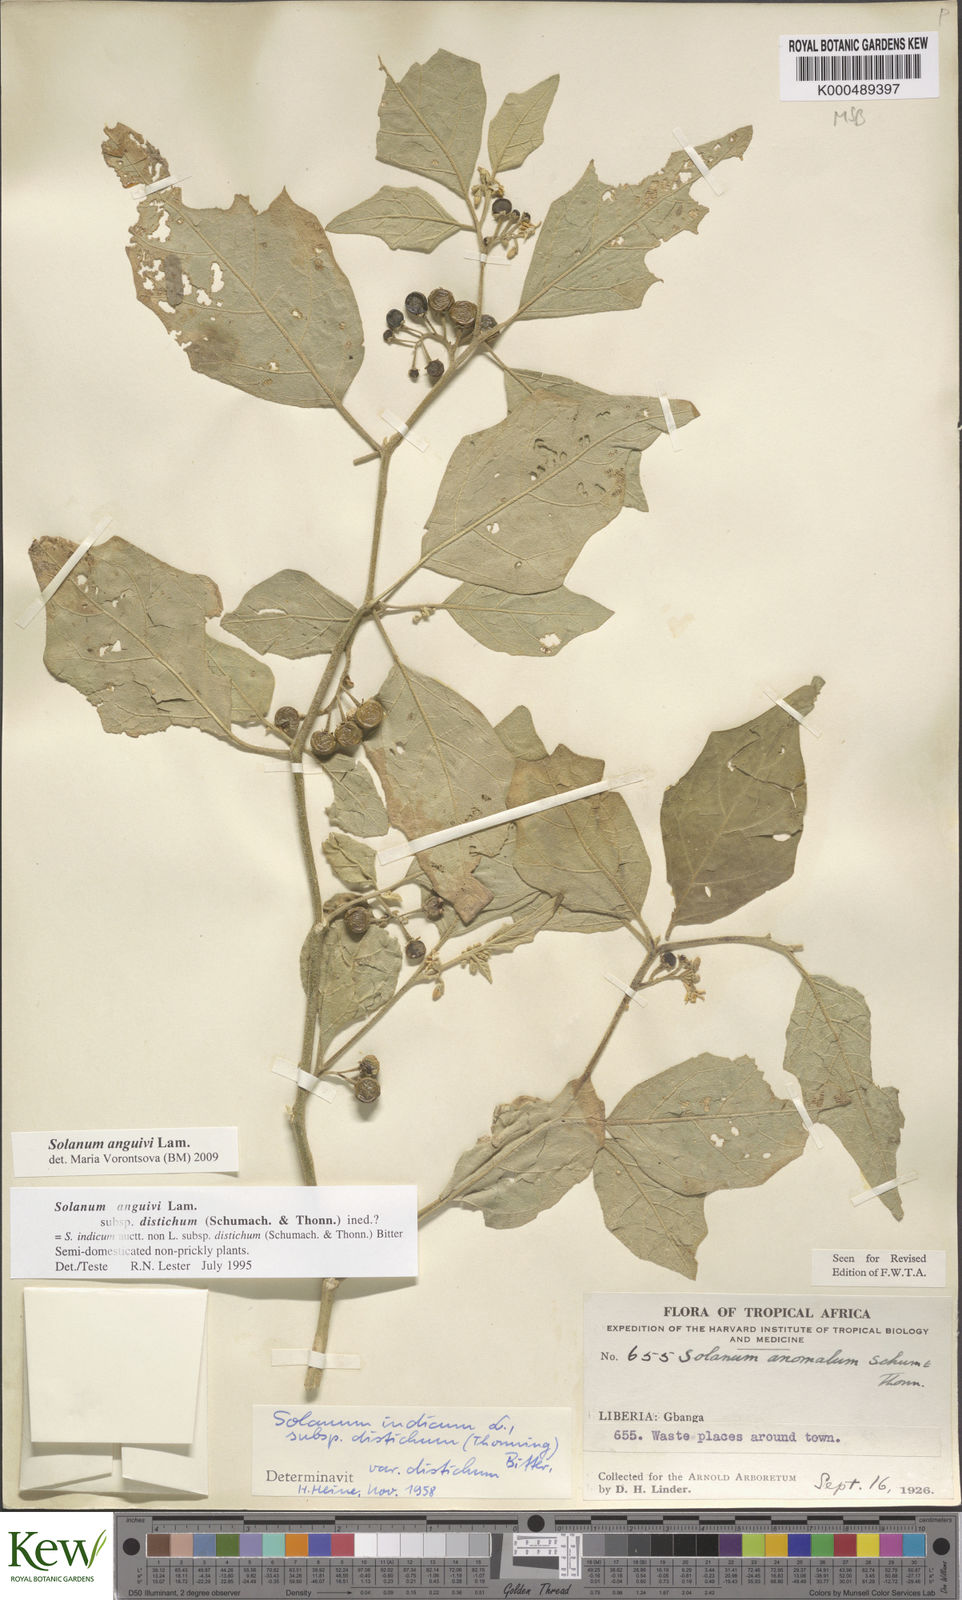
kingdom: Plantae
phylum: Tracheophyta
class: Magnoliopsida
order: Solanales
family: Solanaceae
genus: Solanum
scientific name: Solanum anguivi
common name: Forest bitterberry
